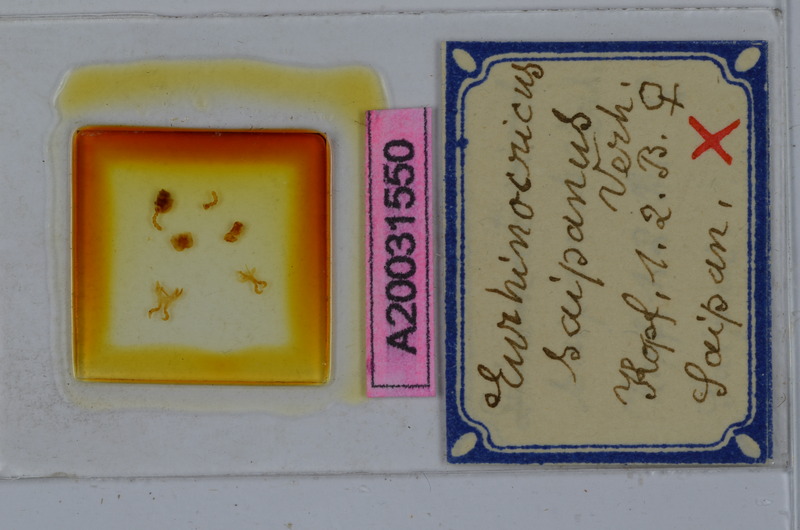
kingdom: Animalia
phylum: Arthropoda
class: Diplopoda
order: Spirobolida
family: Rhinocricidae
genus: Eurhinocricus
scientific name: Eurhinocricus
